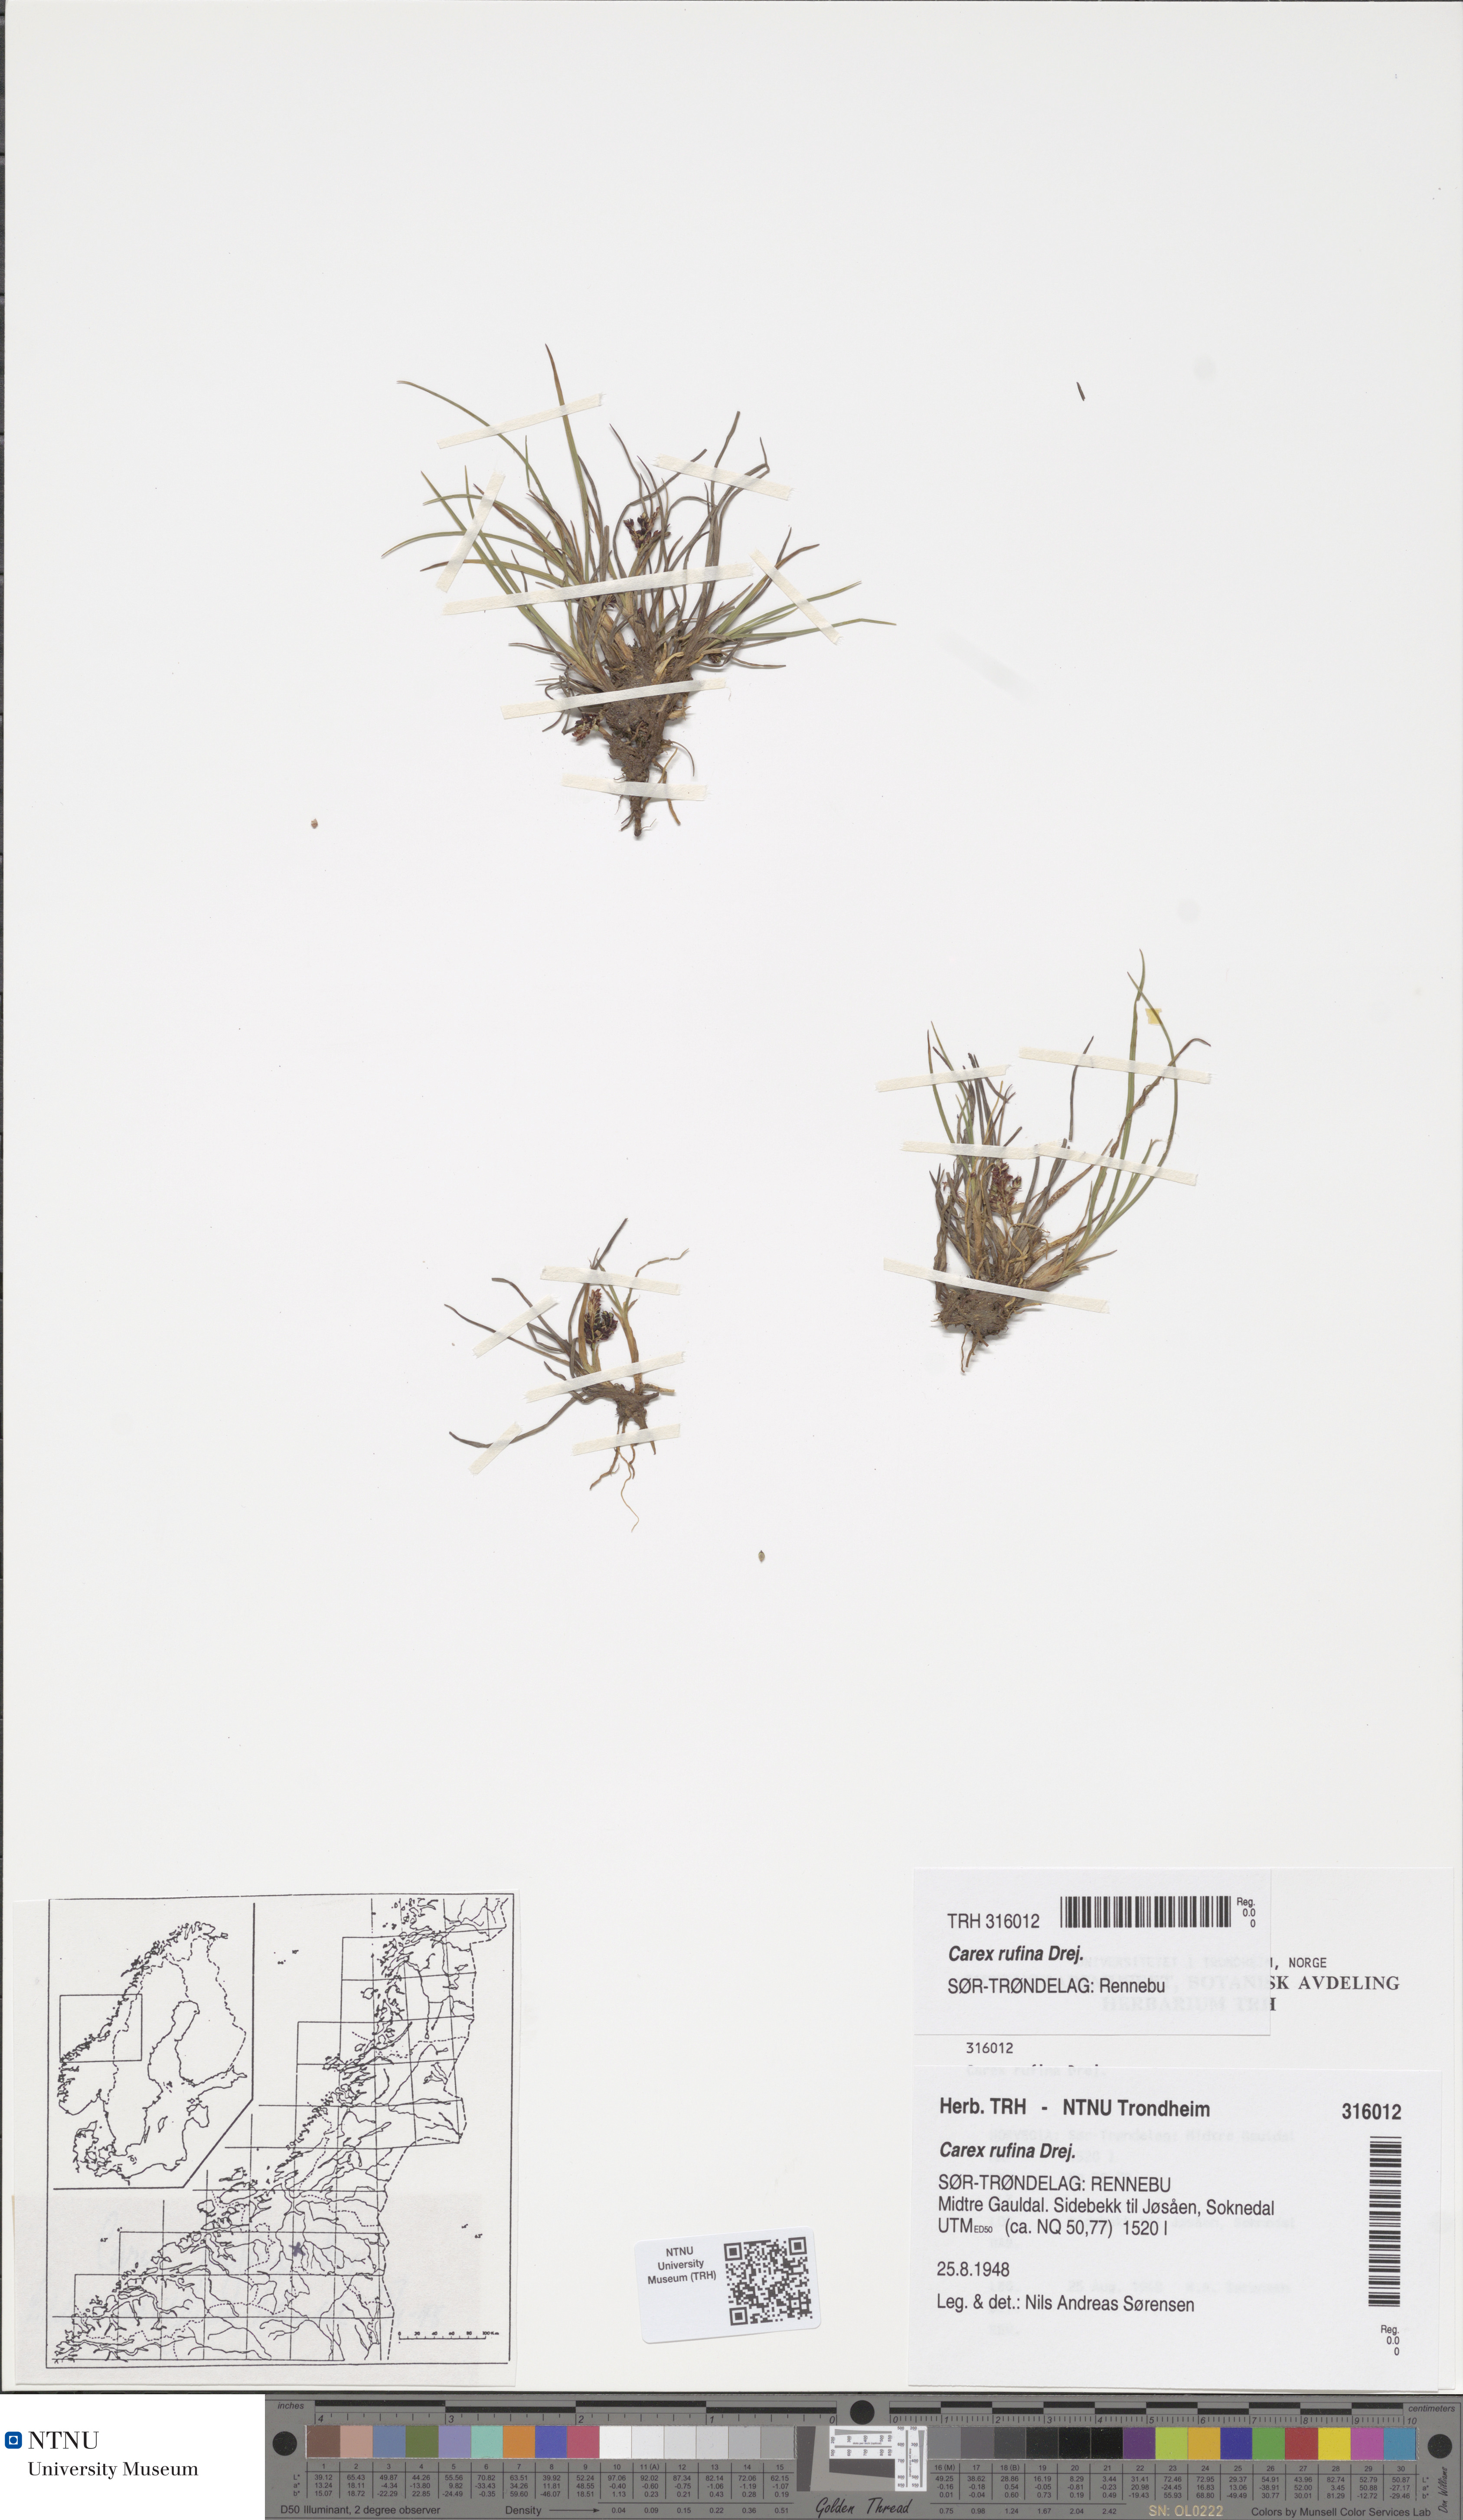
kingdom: Plantae
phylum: Tracheophyta
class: Liliopsida
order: Poales
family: Cyperaceae
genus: Carex
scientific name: Carex rufina
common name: Reddish sedge
